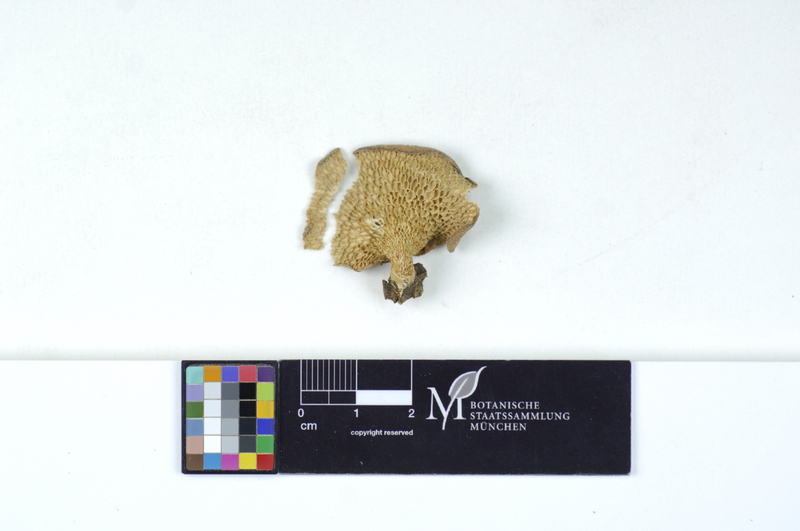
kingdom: Fungi
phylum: Basidiomycota
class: Agaricomycetes
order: Polyporales
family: Polyporaceae
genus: Neofavolus
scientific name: Neofavolus alveolaris
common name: Hexagonal-pored polypore
